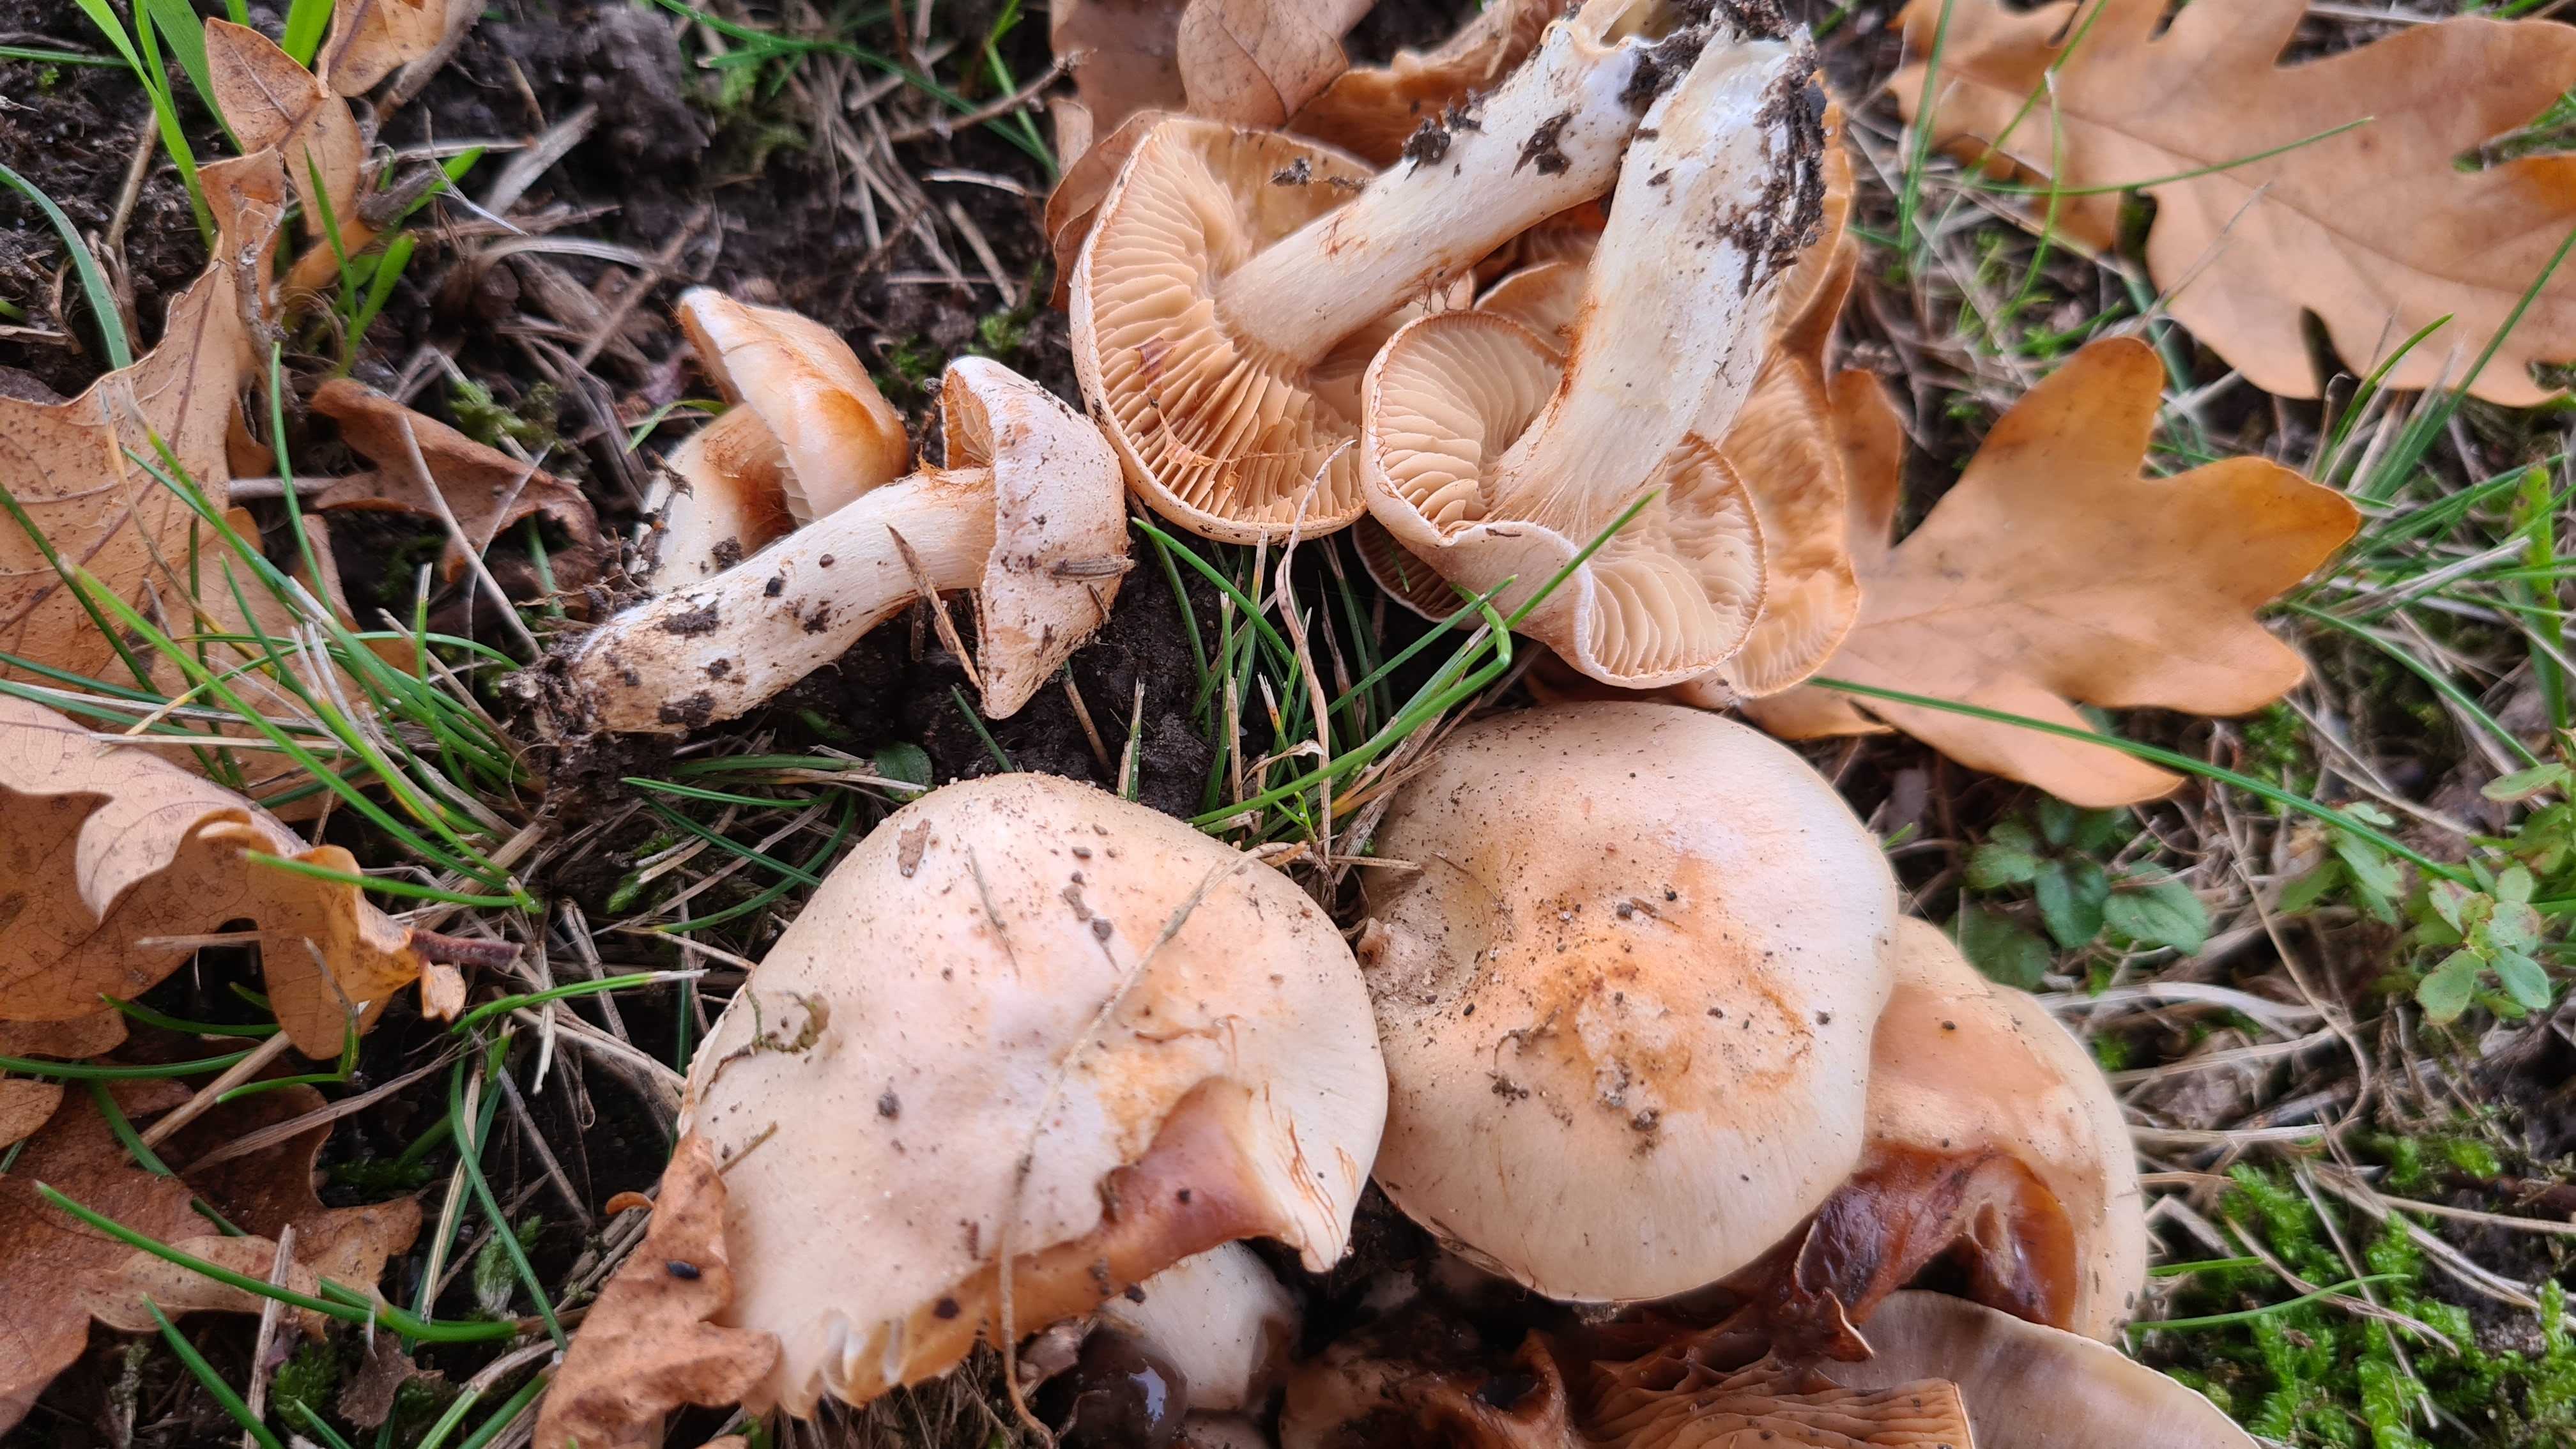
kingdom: Fungi
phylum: Basidiomycota
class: Agaricomycetes
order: Agaricales
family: Cortinariaceae
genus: Thaxterogaster
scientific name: Thaxterogaster leucoluteolus
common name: isabella slørhat
